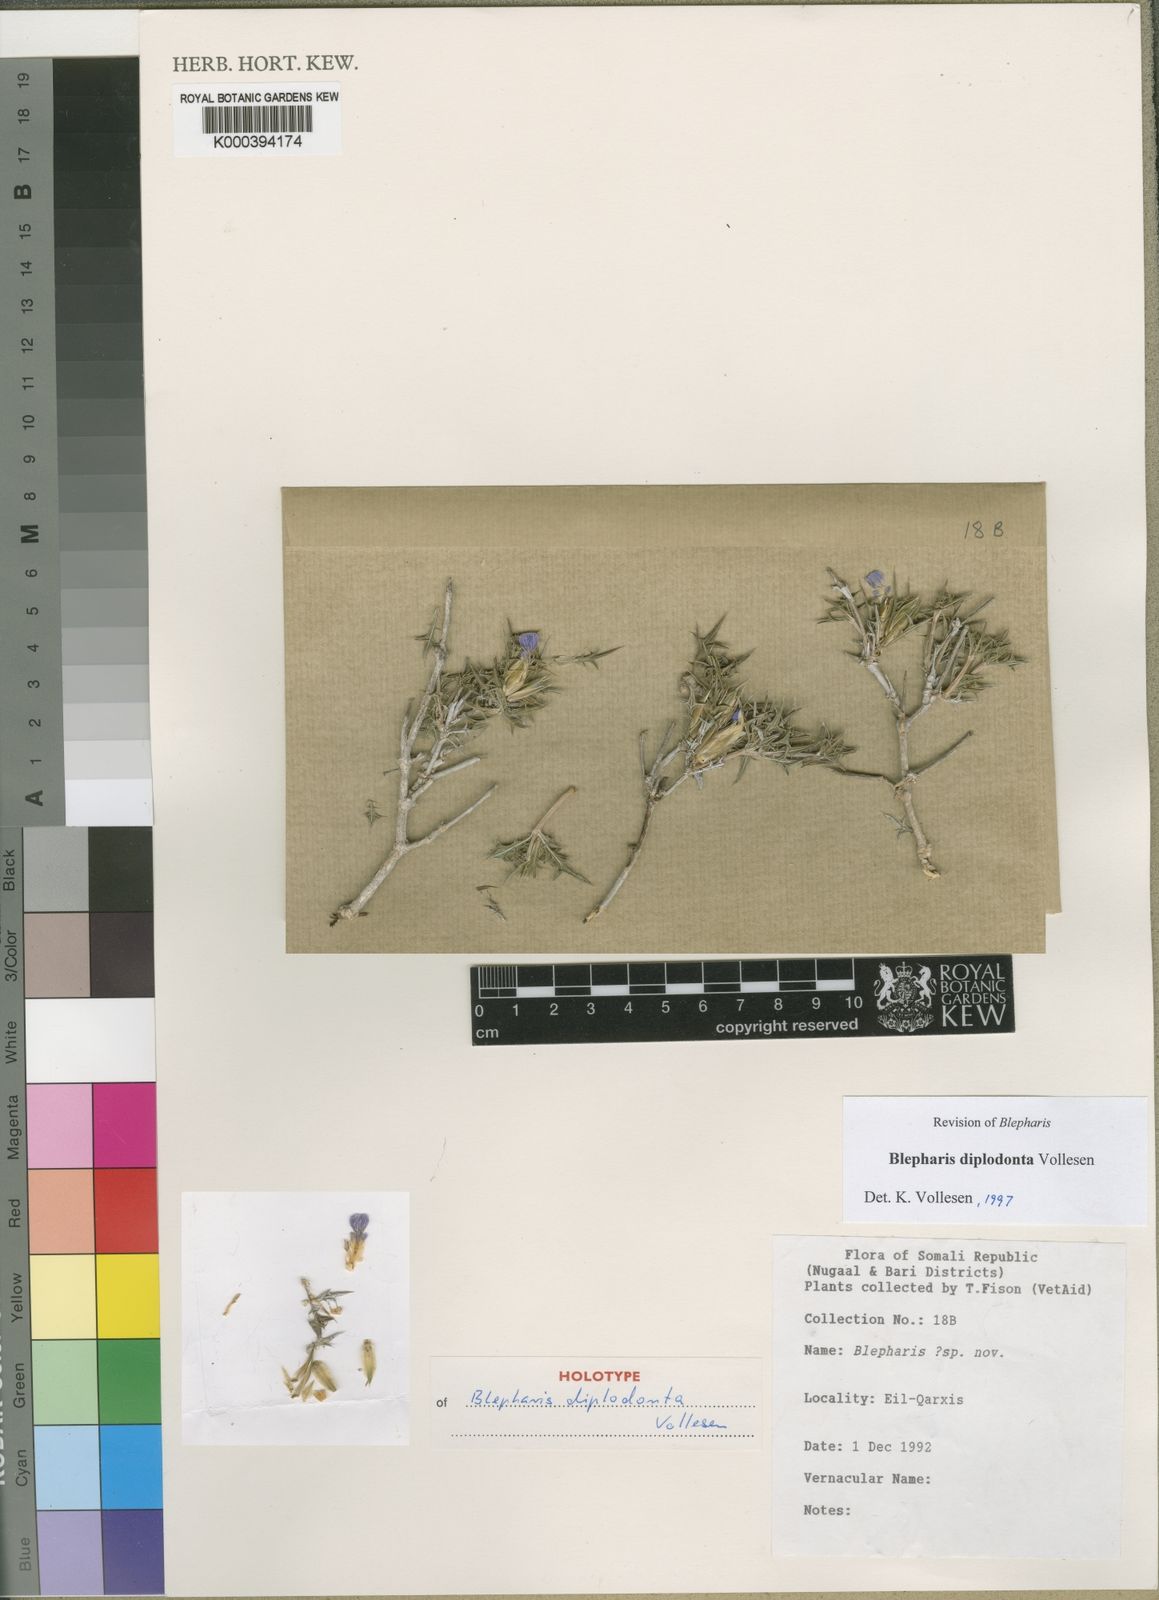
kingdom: Plantae
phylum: Tracheophyta
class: Magnoliopsida
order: Lamiales
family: Acanthaceae
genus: Blepharis
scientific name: Blepharis diplodonta
